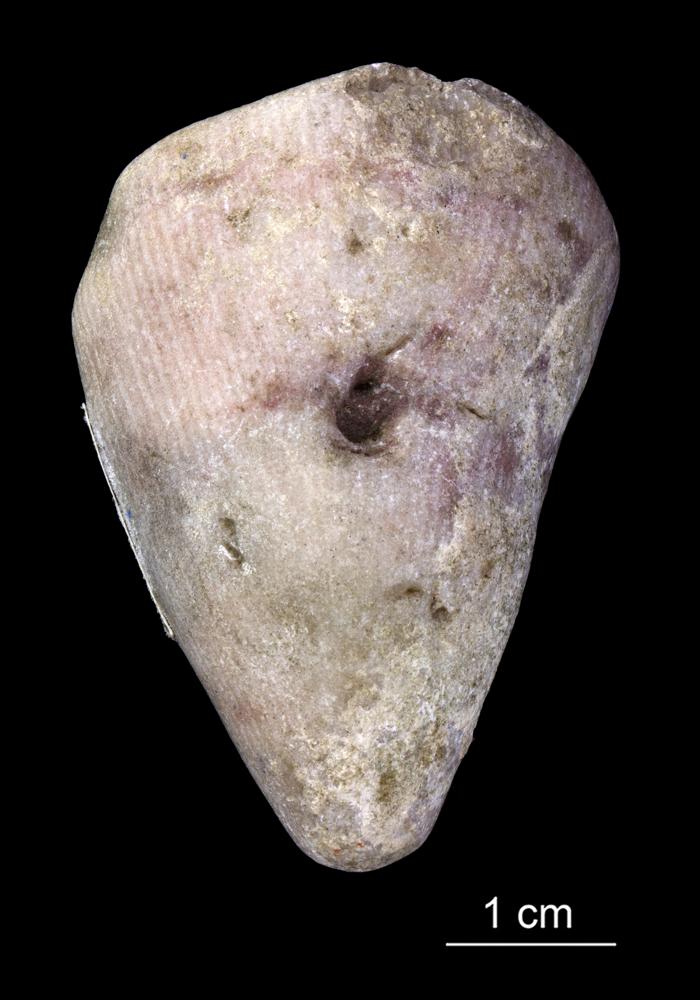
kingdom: Animalia
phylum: Cnidaria
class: Anthozoa
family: Streptelasmatidae
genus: Dinophyllum
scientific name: Dinophyllum
